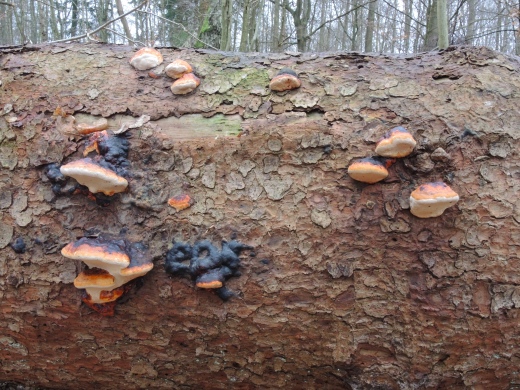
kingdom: Fungi
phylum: Basidiomycota
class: Agaricomycetes
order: Polyporales
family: Fomitopsidaceae
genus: Fomitopsis
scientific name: Fomitopsis pinicola
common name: randbæltet hovporesvamp
